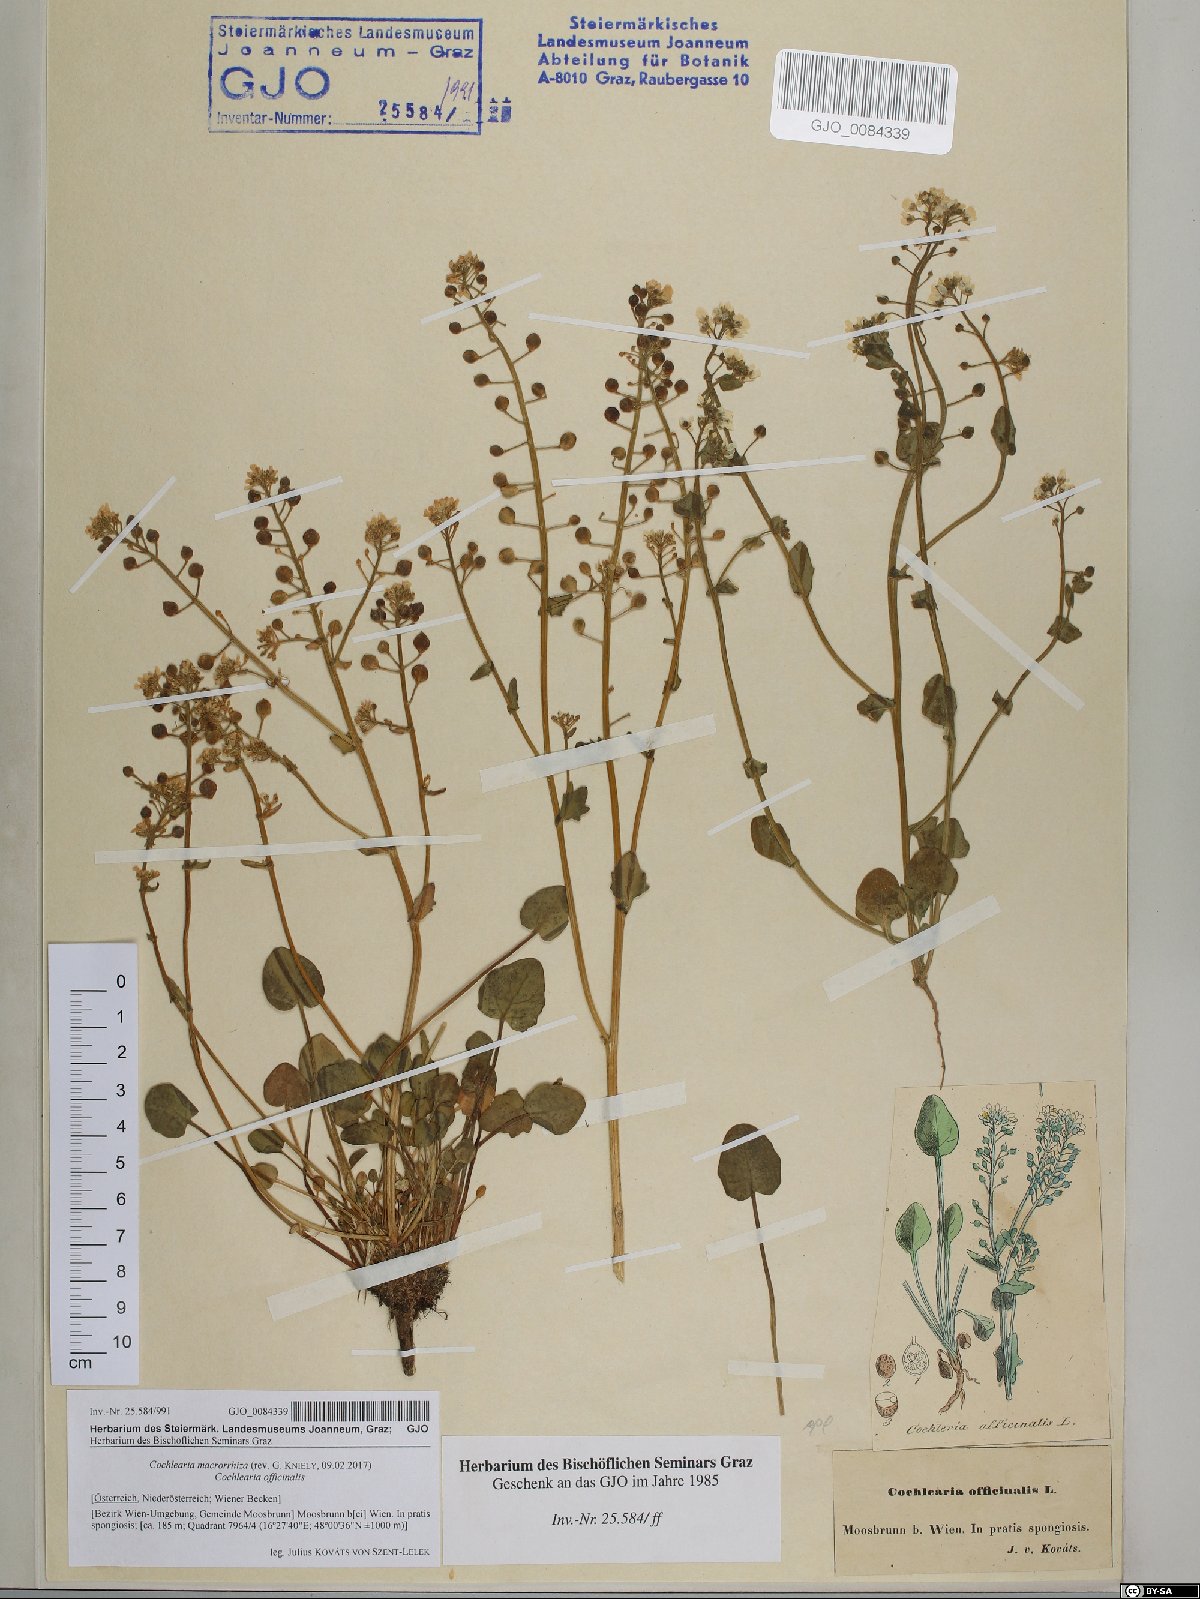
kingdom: Plantae
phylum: Tracheophyta
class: Magnoliopsida
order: Brassicales
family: Brassicaceae
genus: Cochlearia
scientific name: Cochlearia pyrenaica
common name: Upland scurvy-grass
